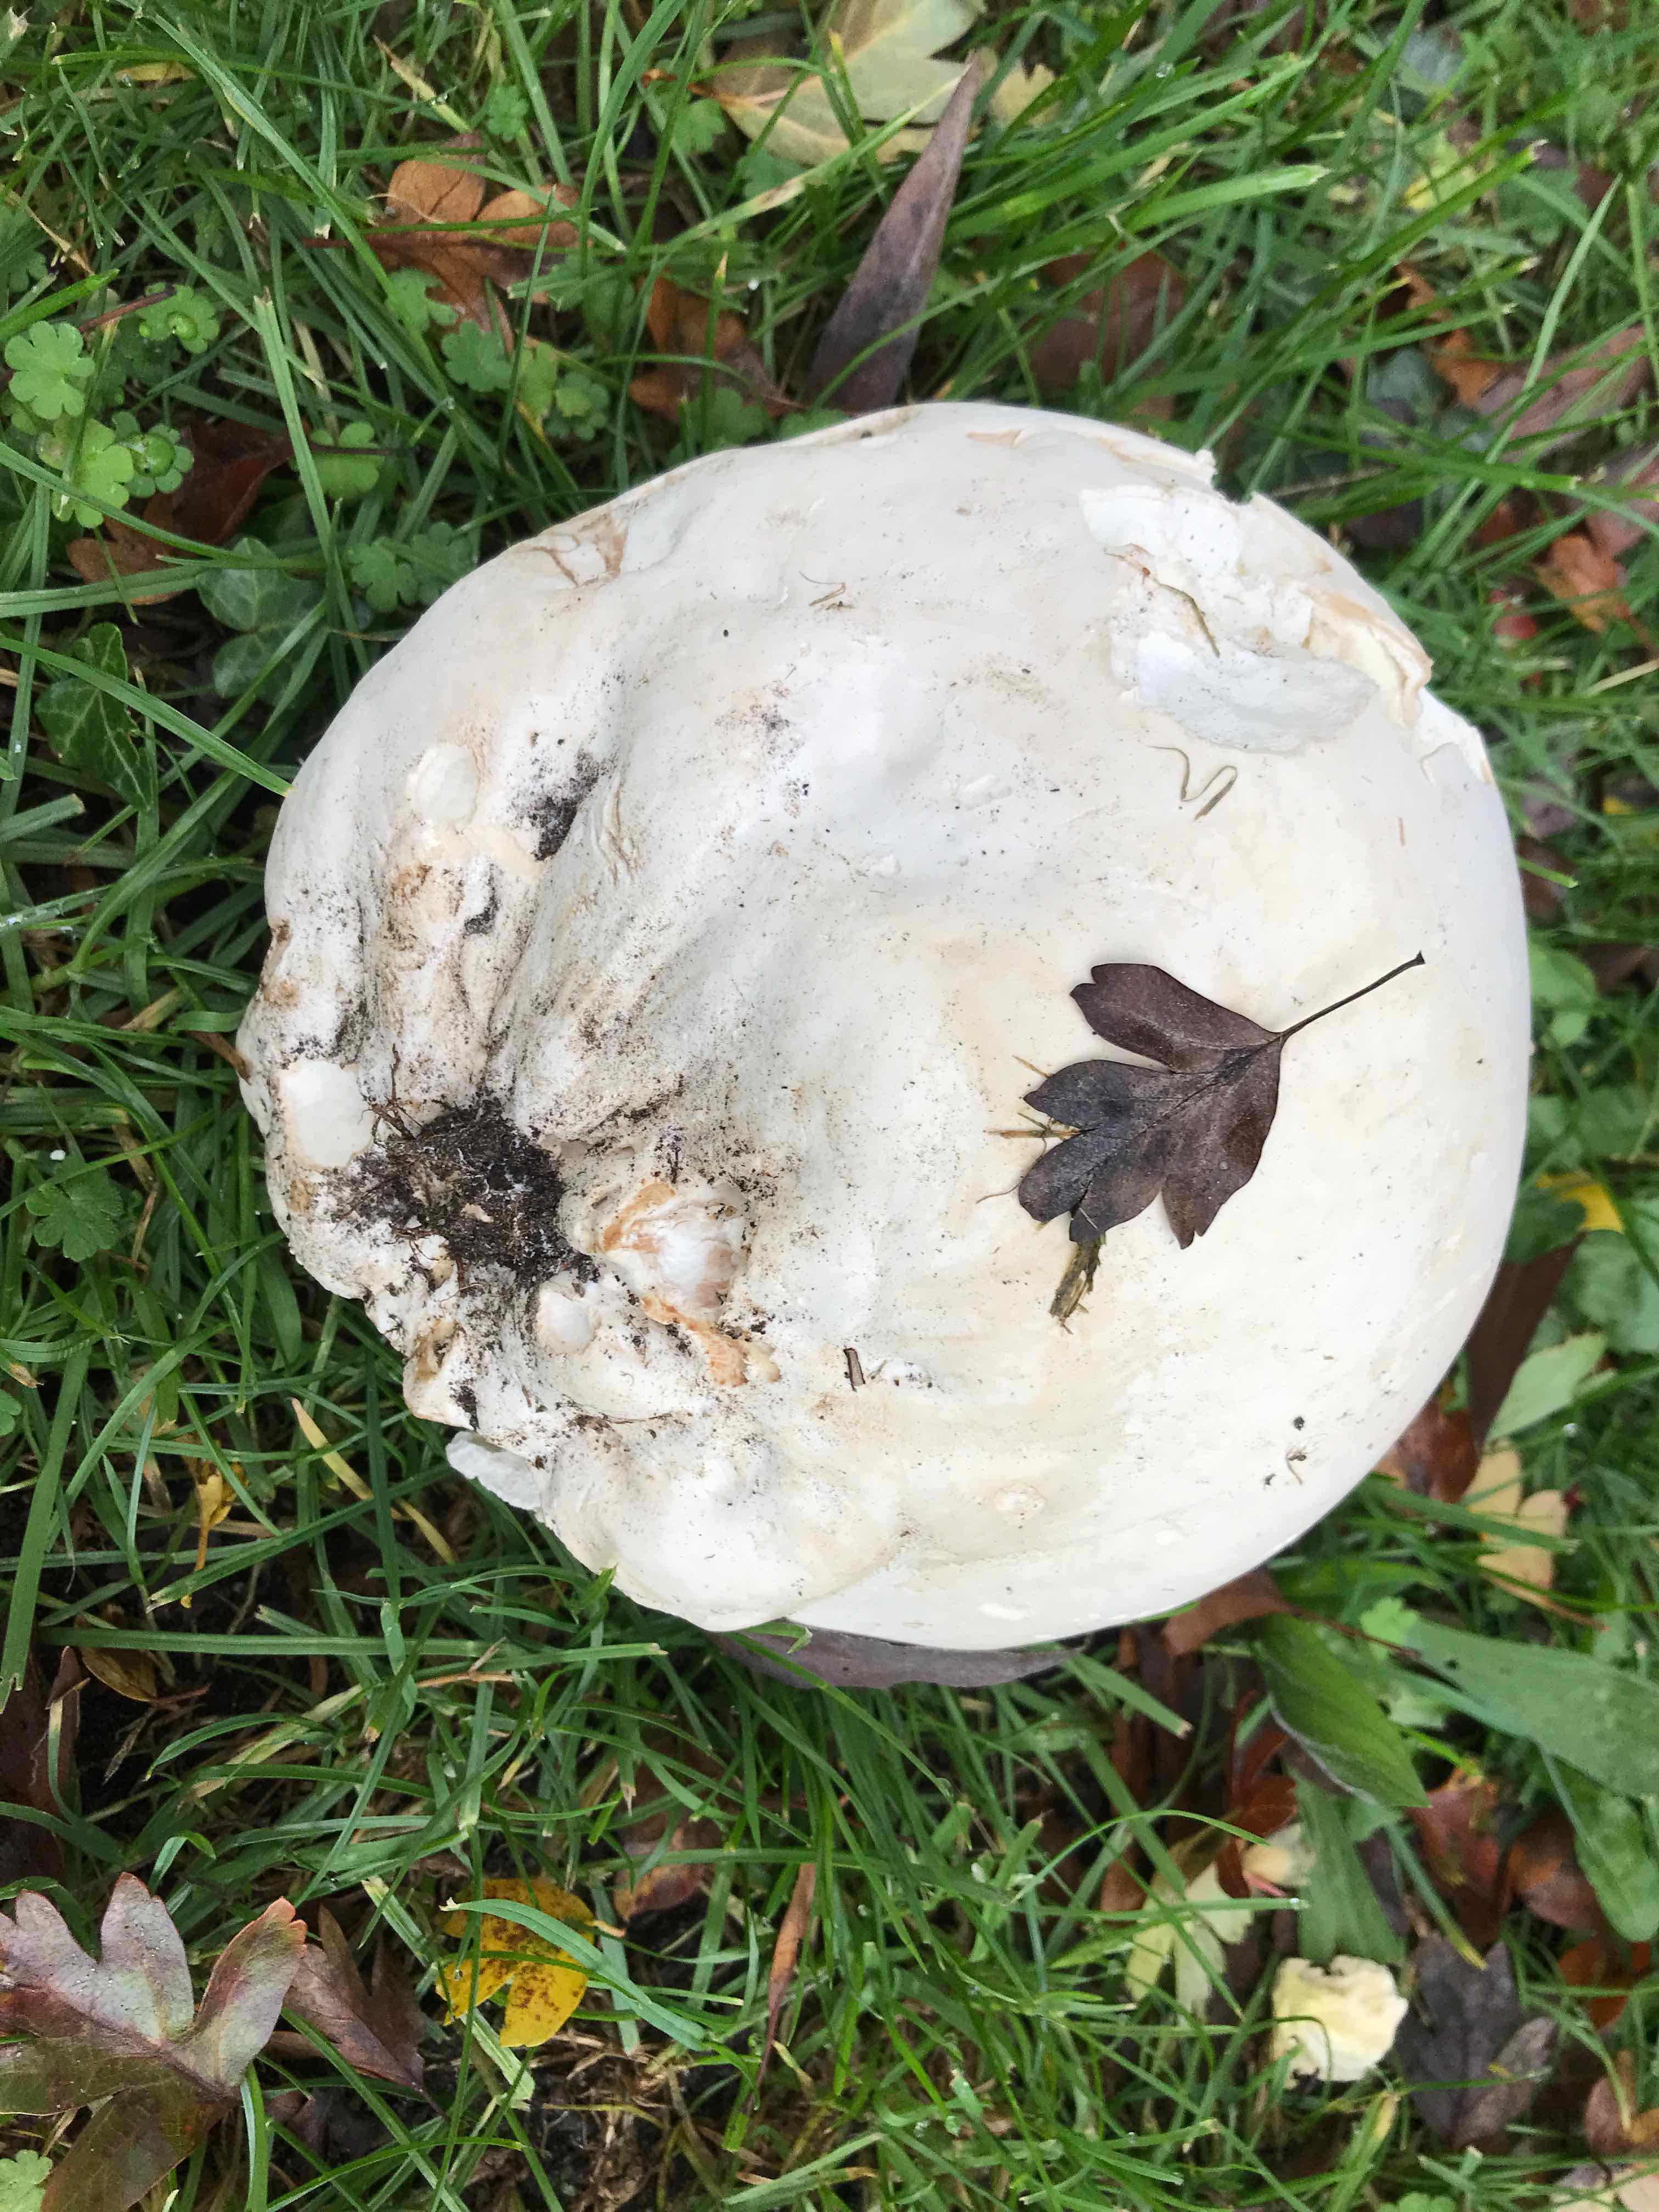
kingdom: Fungi
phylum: Basidiomycota
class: Agaricomycetes
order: Agaricales
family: Lycoperdaceae
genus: Calvatia
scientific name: Calvatia gigantea
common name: kæmpestøvbold
